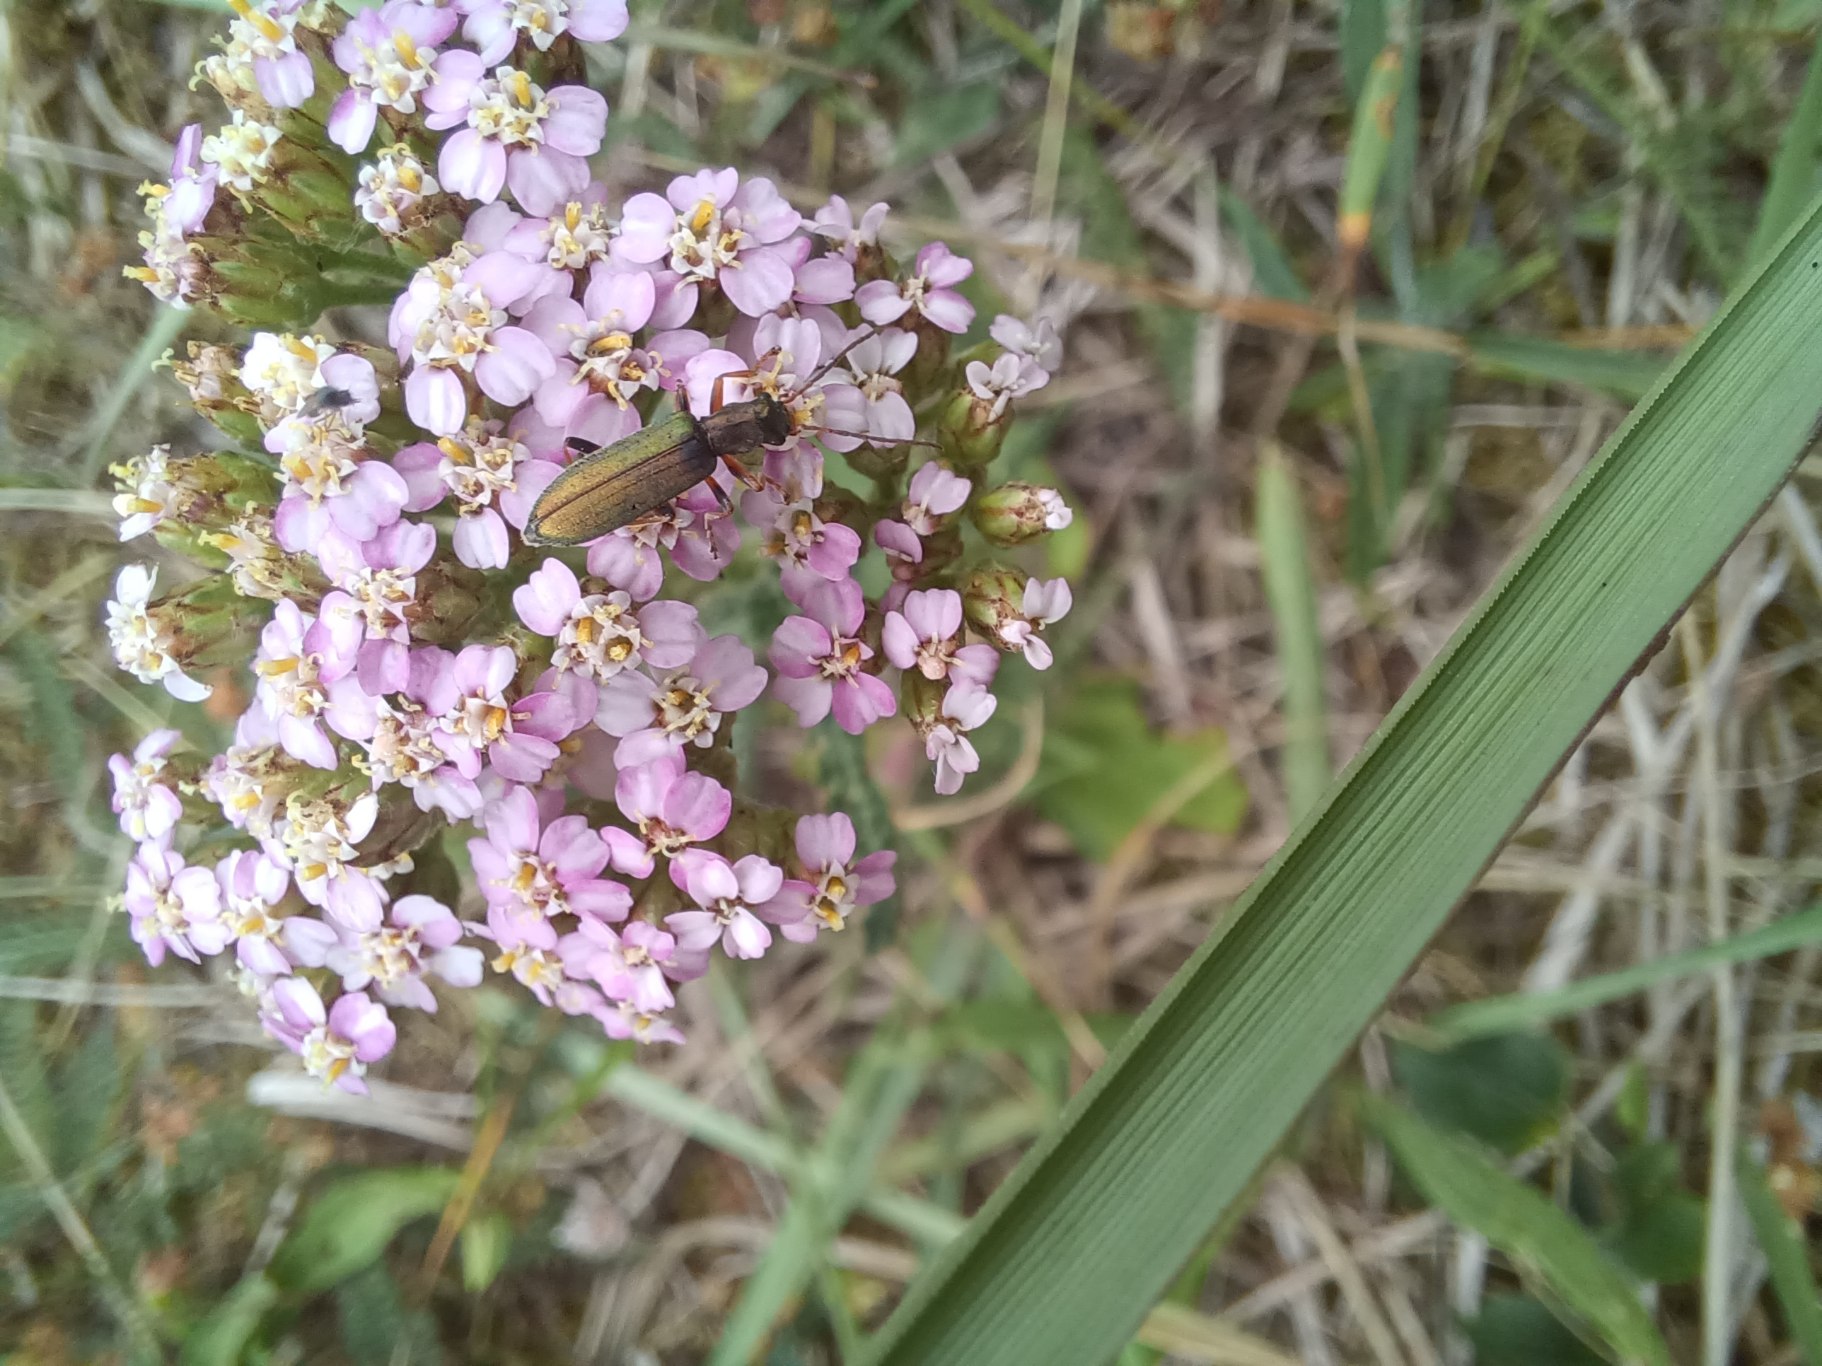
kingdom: Animalia
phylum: Arthropoda
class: Insecta
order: Coleoptera
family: Oedemeridae
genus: Chrysanthia
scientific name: Chrysanthia geniculata
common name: Grøn solbille
